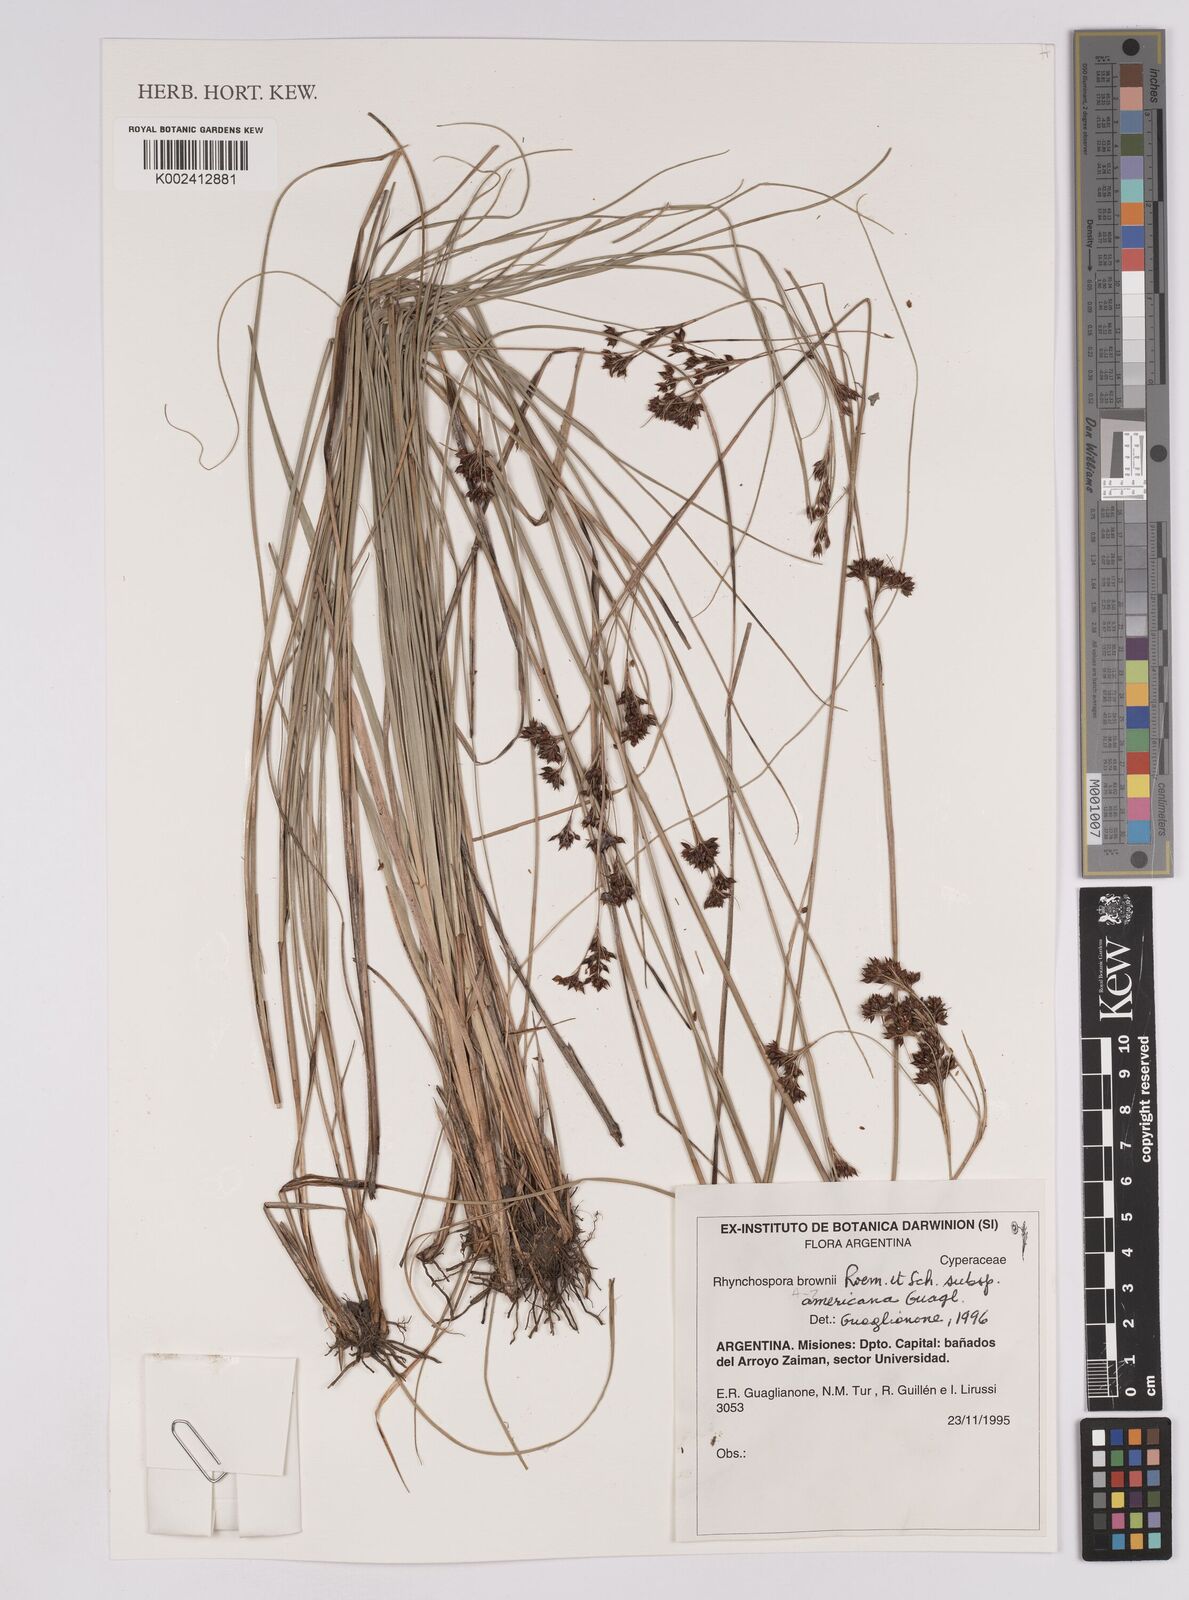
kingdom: Plantae
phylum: Tracheophyta
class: Liliopsida
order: Poales
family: Cyperaceae
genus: Rhynchospora
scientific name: Rhynchospora brownii
